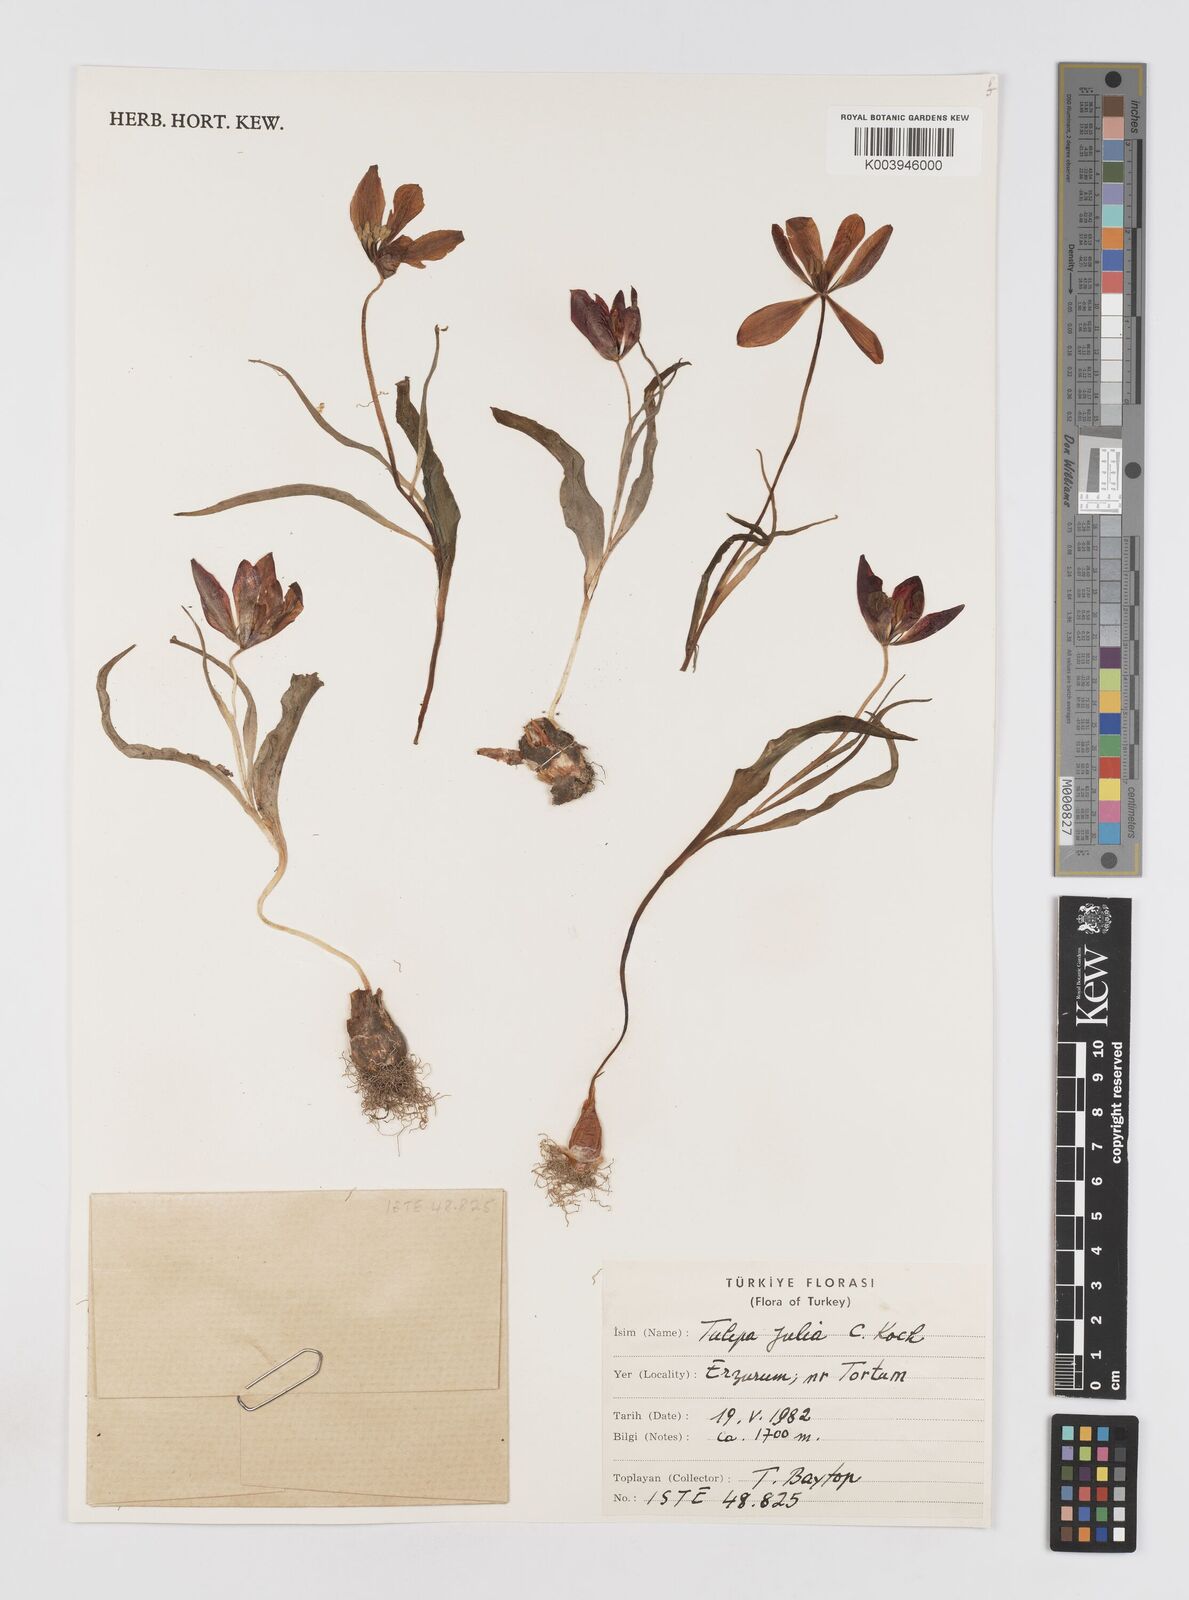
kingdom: Plantae
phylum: Tracheophyta
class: Liliopsida
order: Liliales
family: Liliaceae
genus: Tulipa
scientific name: Tulipa julia
